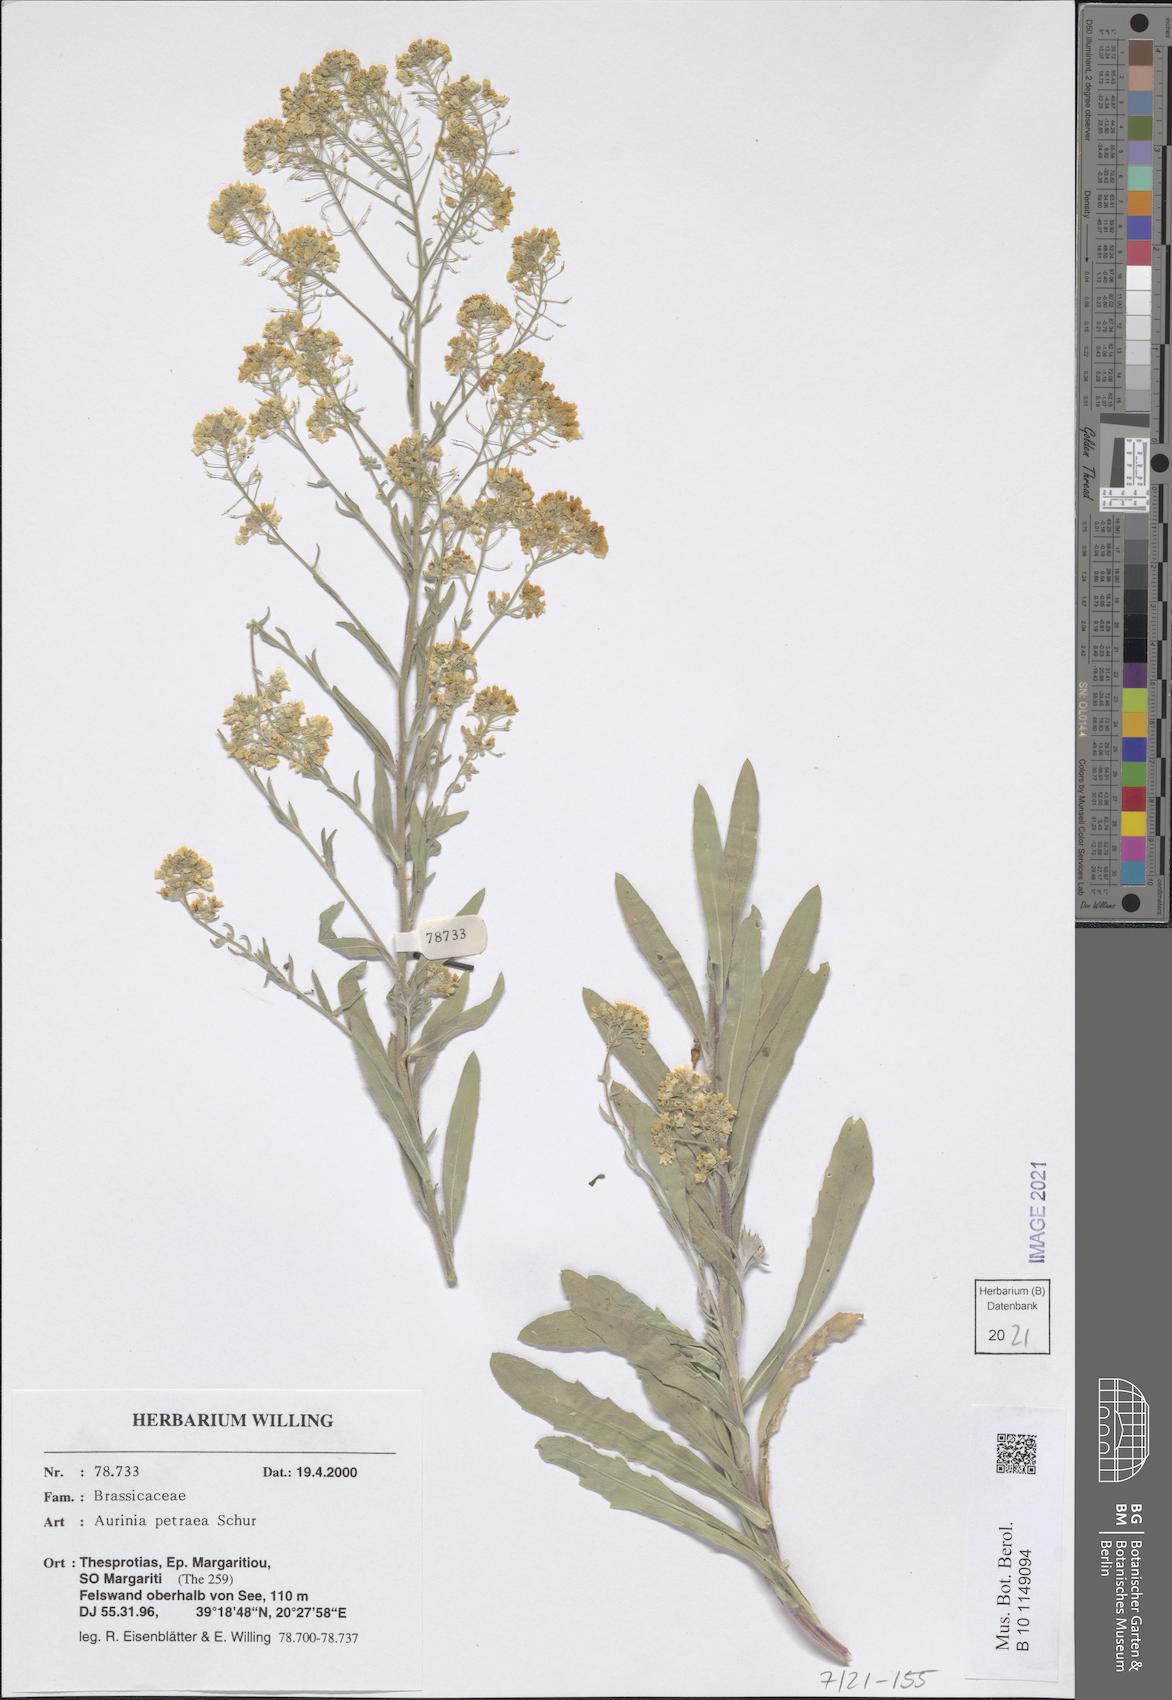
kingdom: Plantae
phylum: Tracheophyta
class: Magnoliopsida
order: Brassicales
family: Brassicaceae
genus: Aurinia
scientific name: Aurinia petraea
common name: Goldentuft
